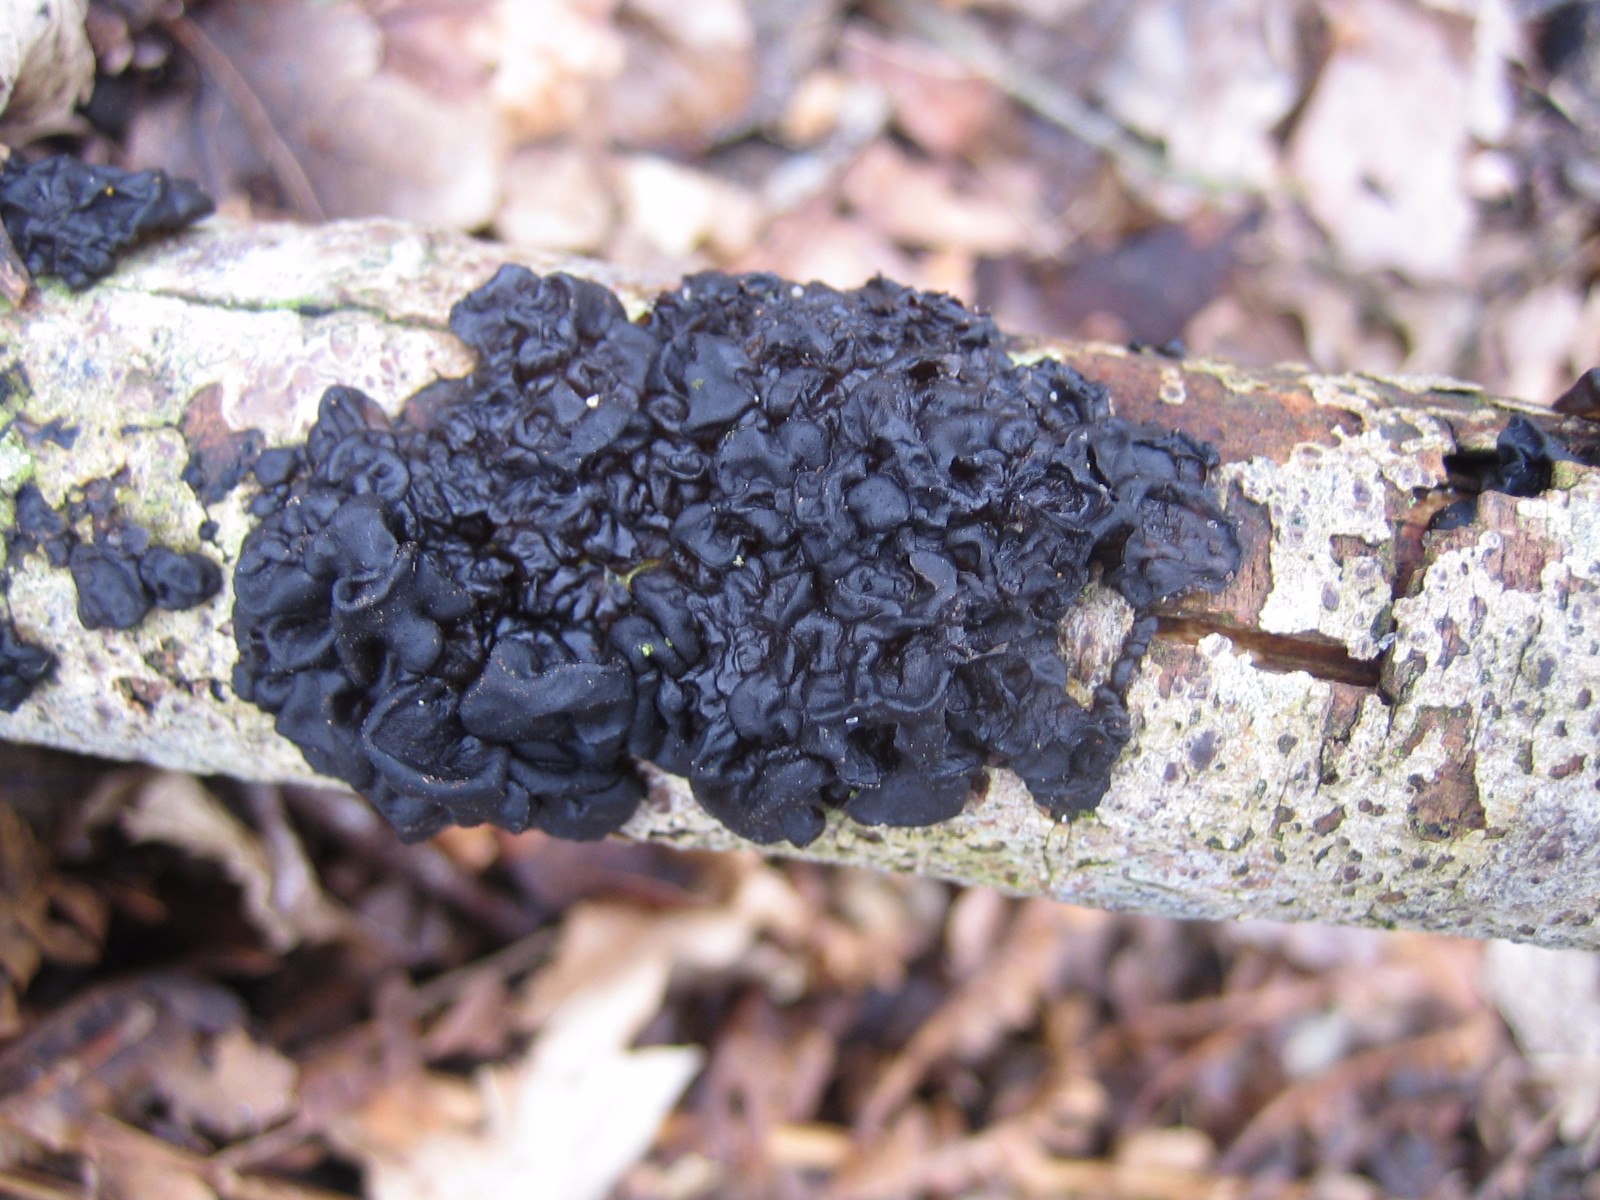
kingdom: Fungi
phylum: Basidiomycota
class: Agaricomycetes
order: Auriculariales
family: Auriculariaceae
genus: Exidia
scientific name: Exidia nigricans
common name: almindelig bævretop
